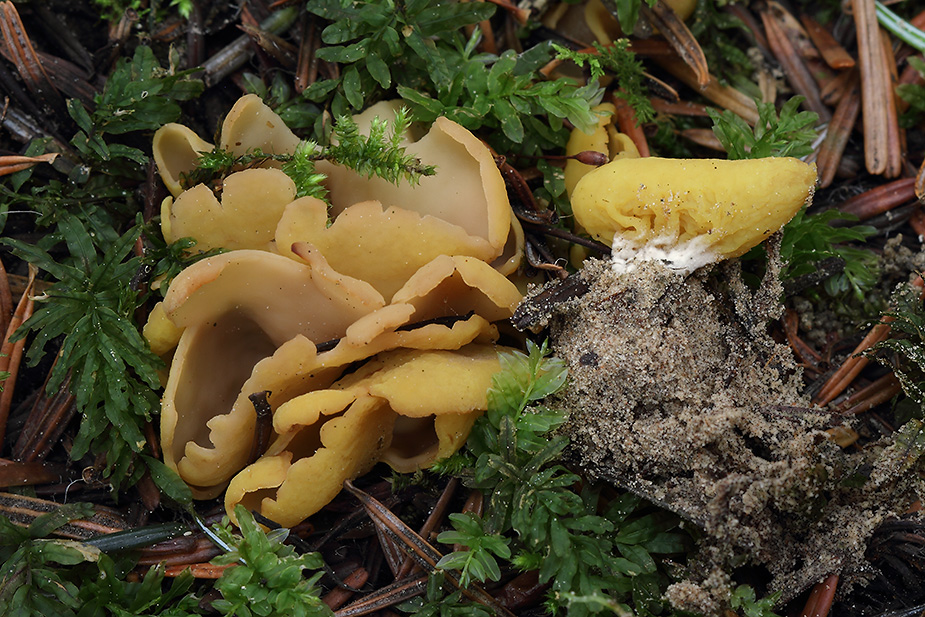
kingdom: Fungi
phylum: Ascomycota
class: Pezizomycetes
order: Pezizales
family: Otideaceae
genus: Otidea
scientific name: Otidea phlebophora
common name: året ørebæger
